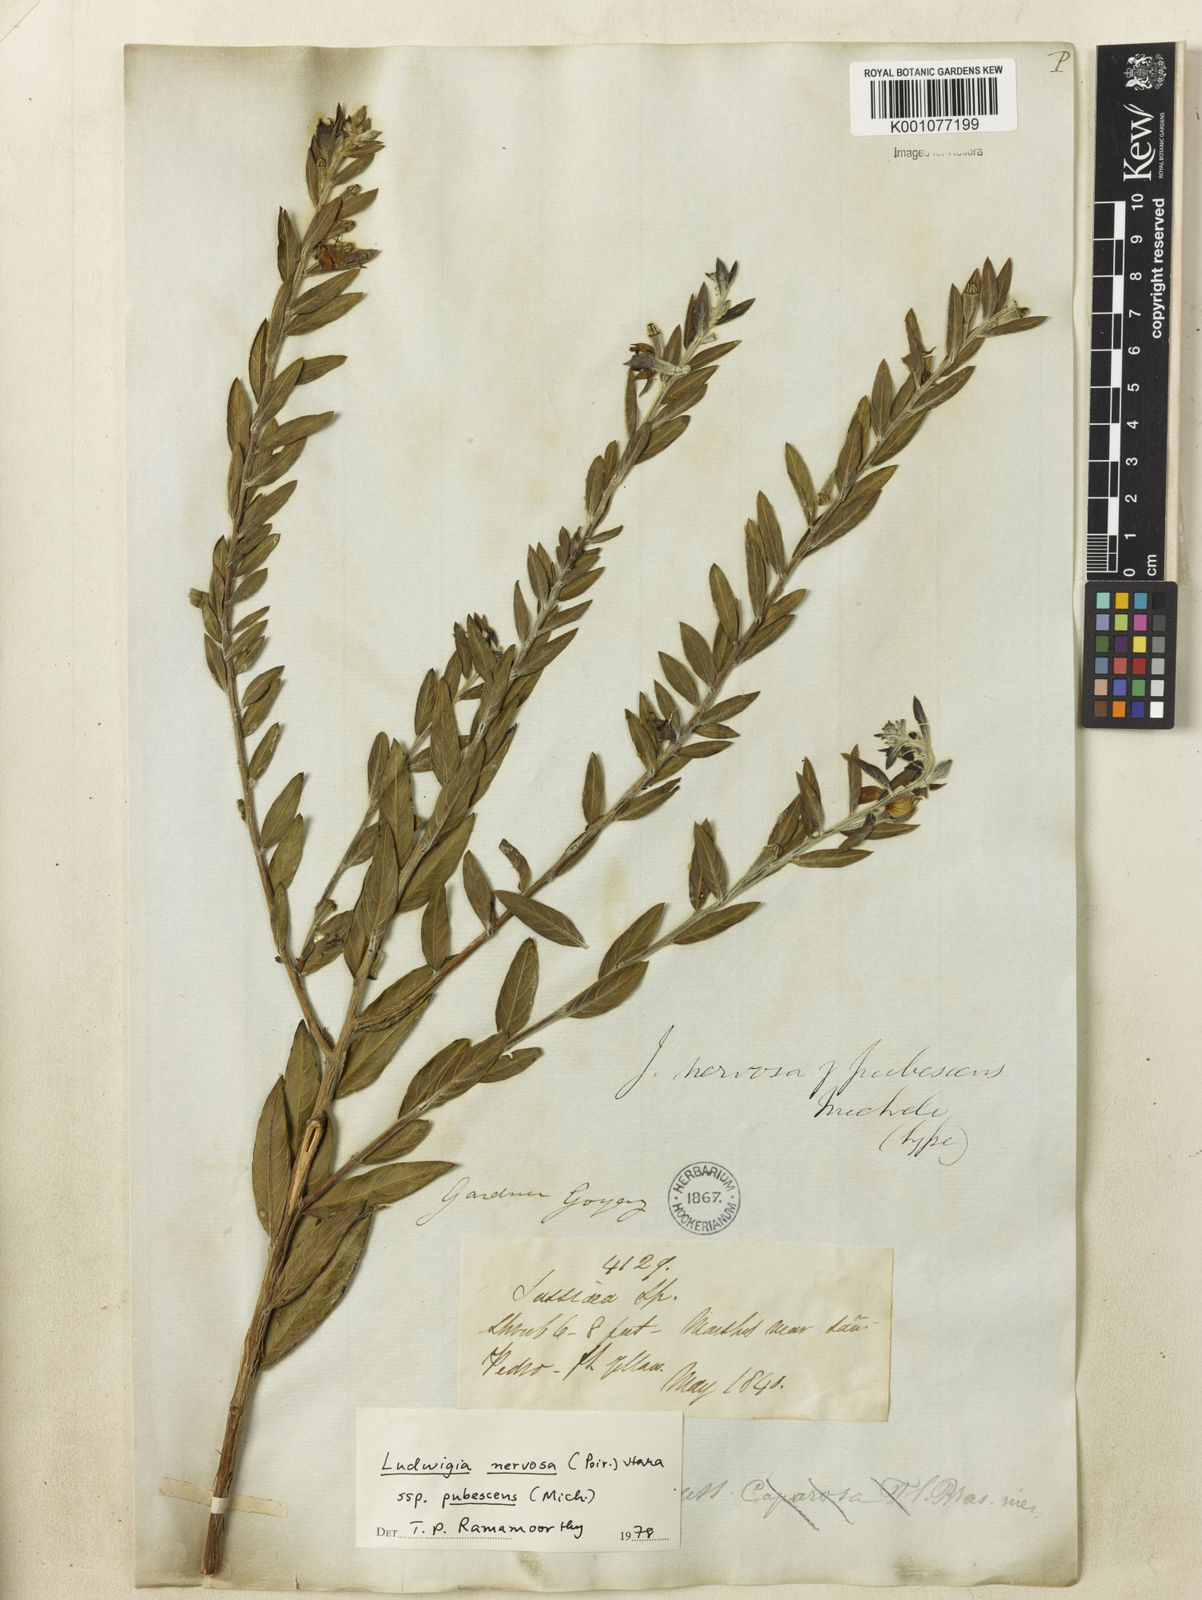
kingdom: Plantae
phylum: Tracheophyta
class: Magnoliopsida
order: Myrtales
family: Onagraceae
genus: Ludwigia
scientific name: Ludwigia nervosa
